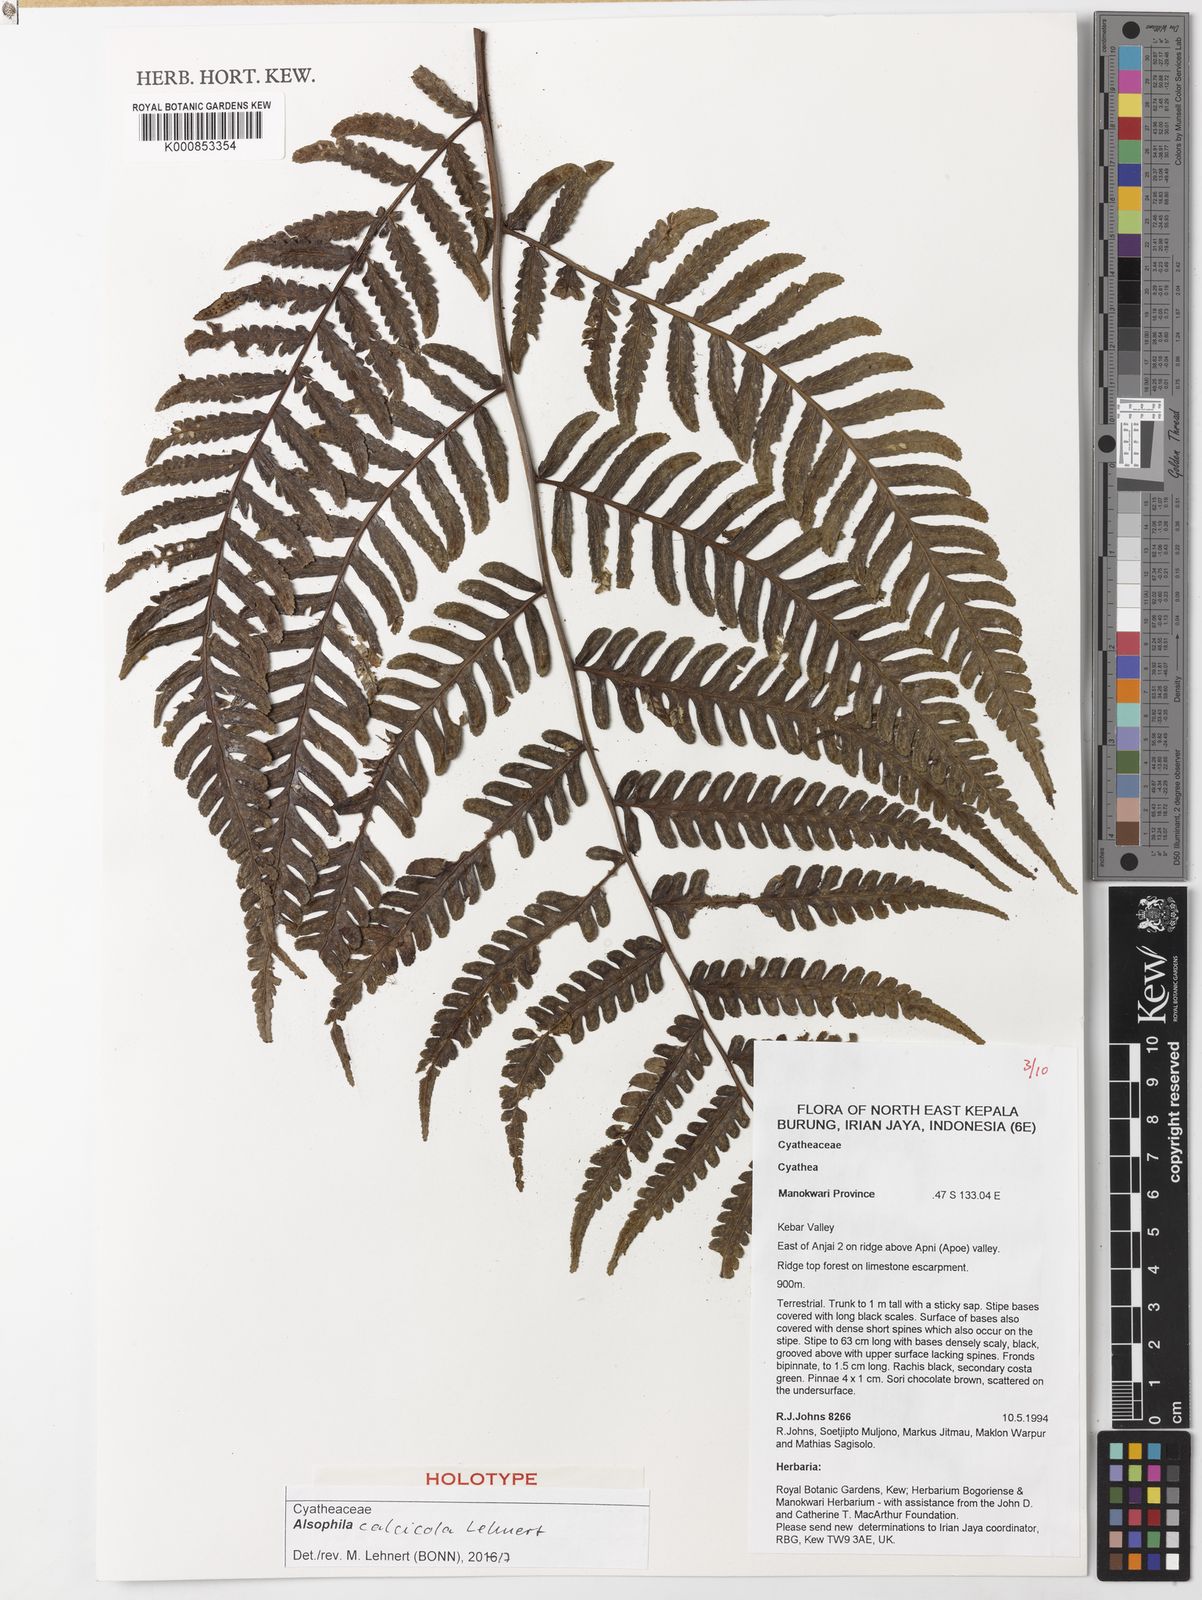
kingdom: Plantae
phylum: Tracheophyta
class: Polypodiopsida
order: Cyatheales
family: Cyatheaceae
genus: Alsophila
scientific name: Alsophila calcicola
